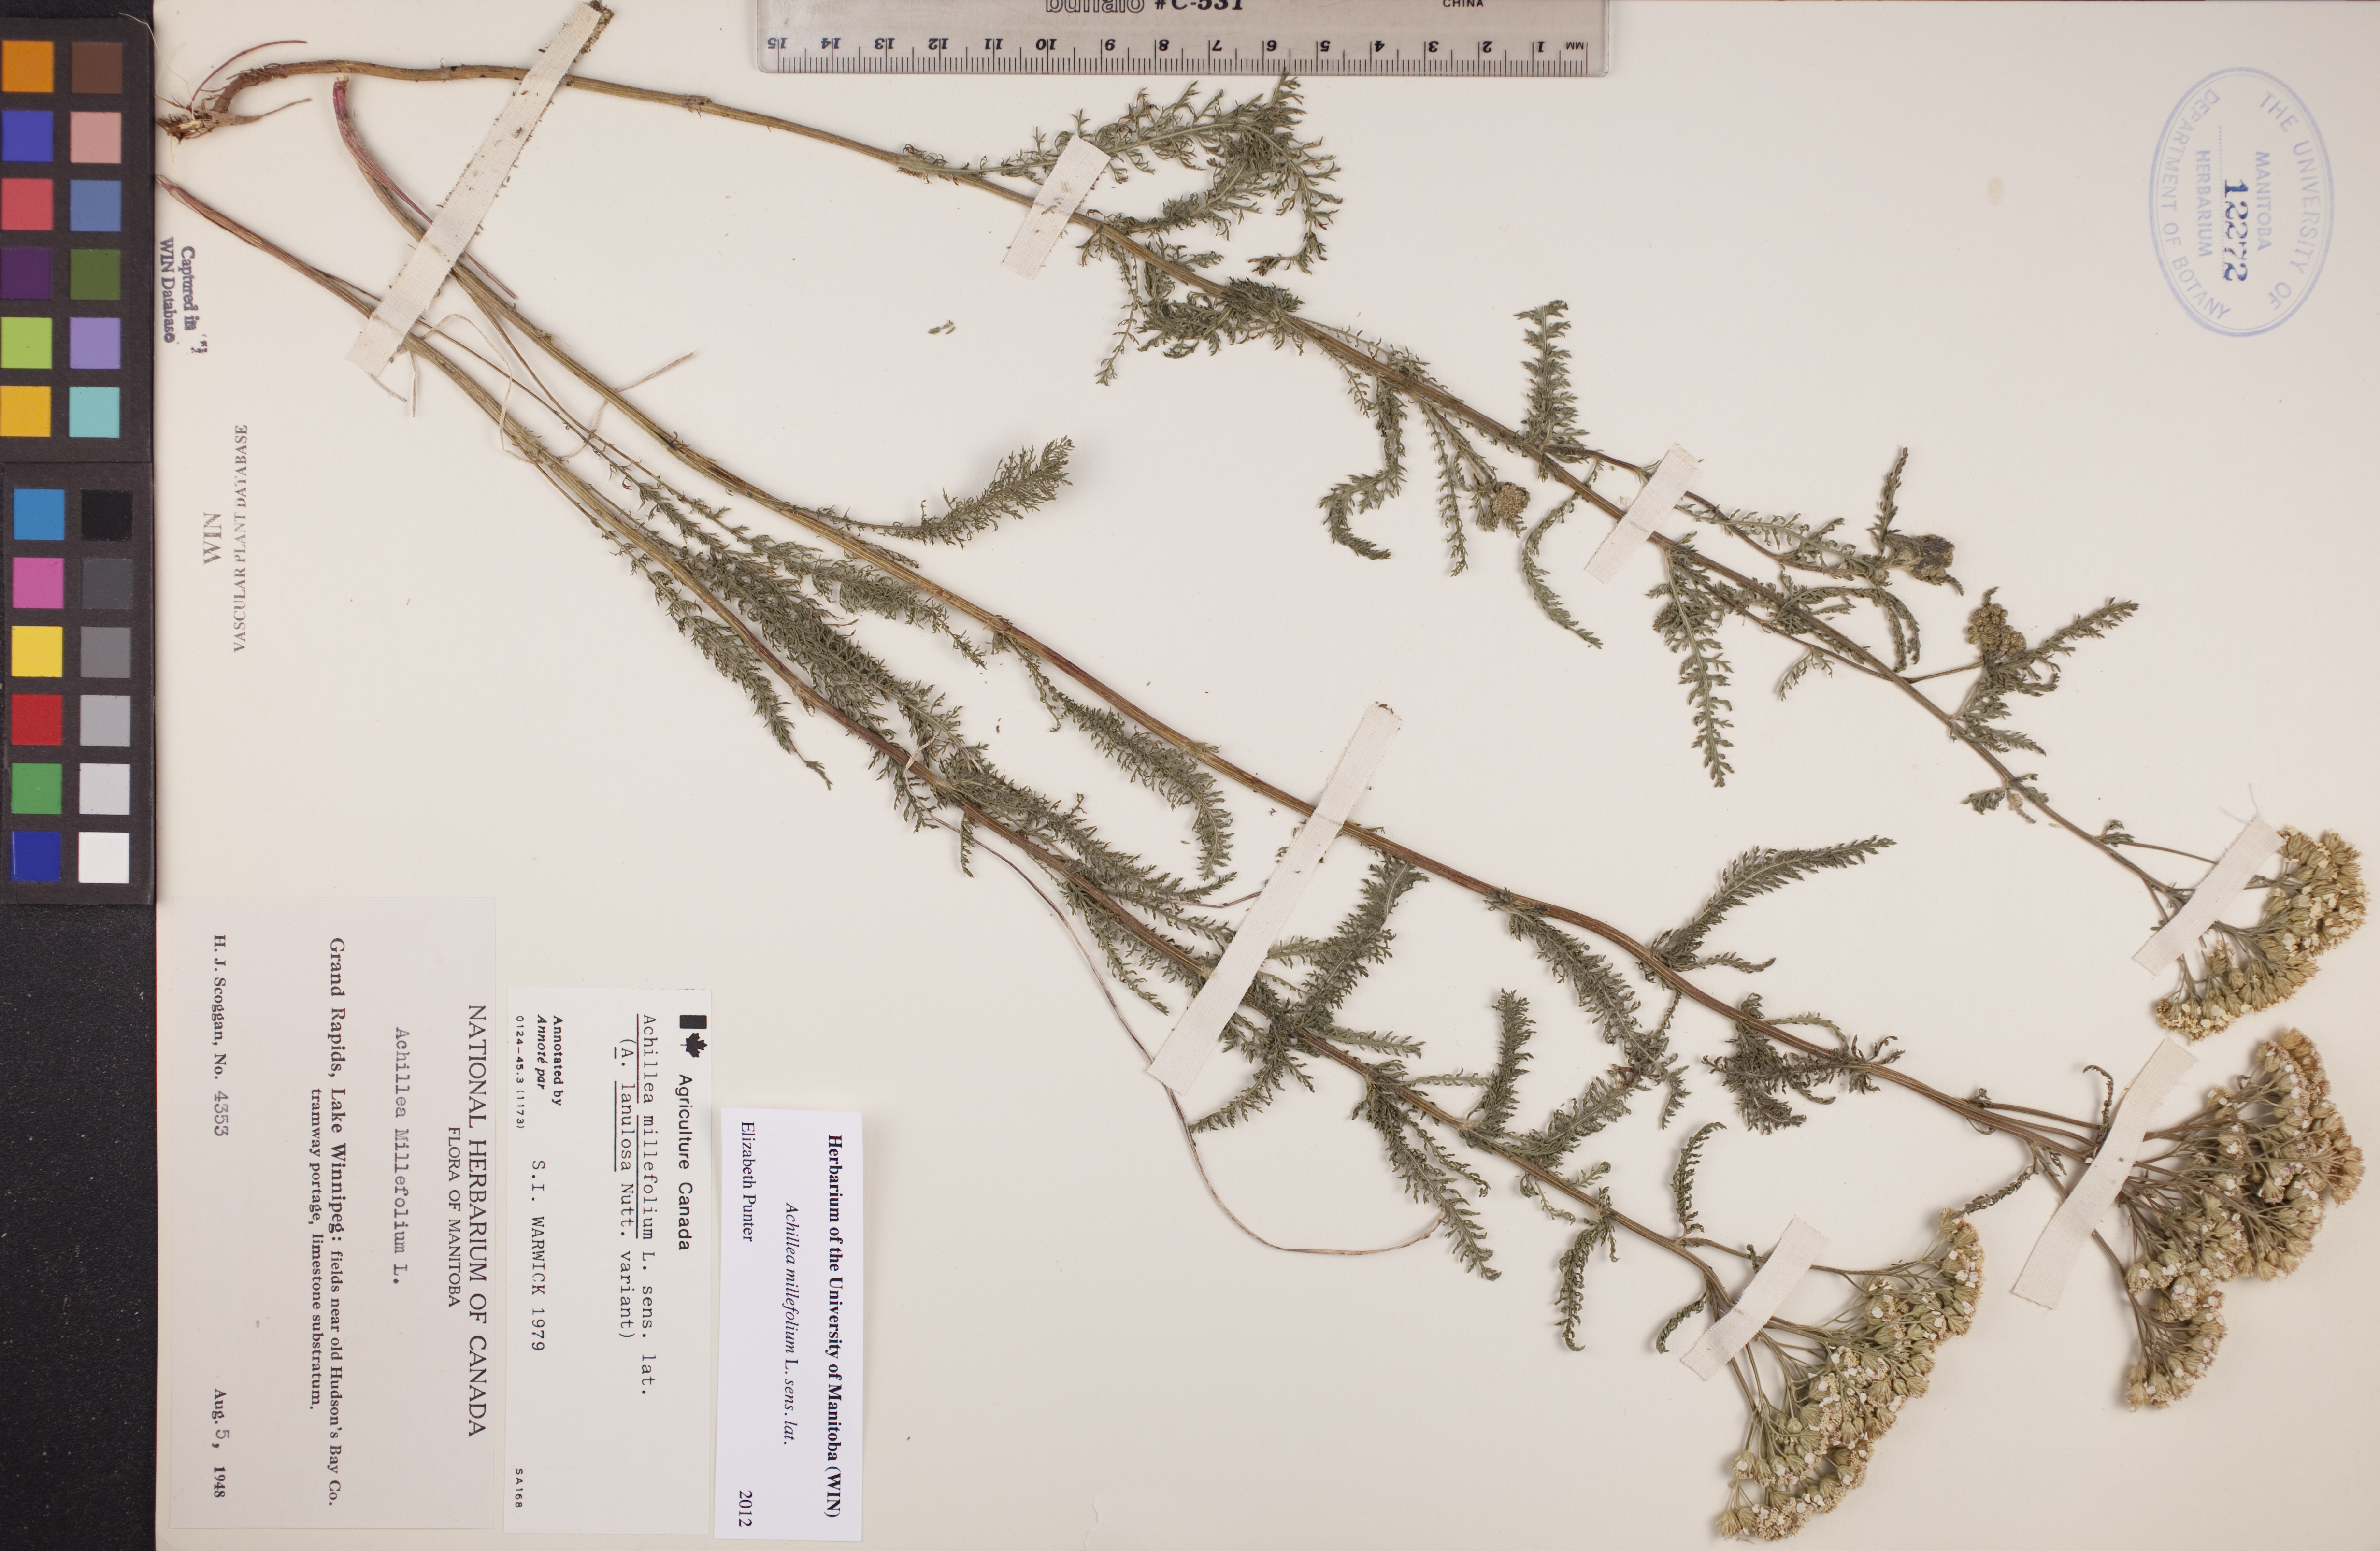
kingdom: Plantae
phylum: Tracheophyta
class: Magnoliopsida
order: Asterales
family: Asteraceae
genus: Achillea
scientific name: Achillea millefolium
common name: Yarrow
